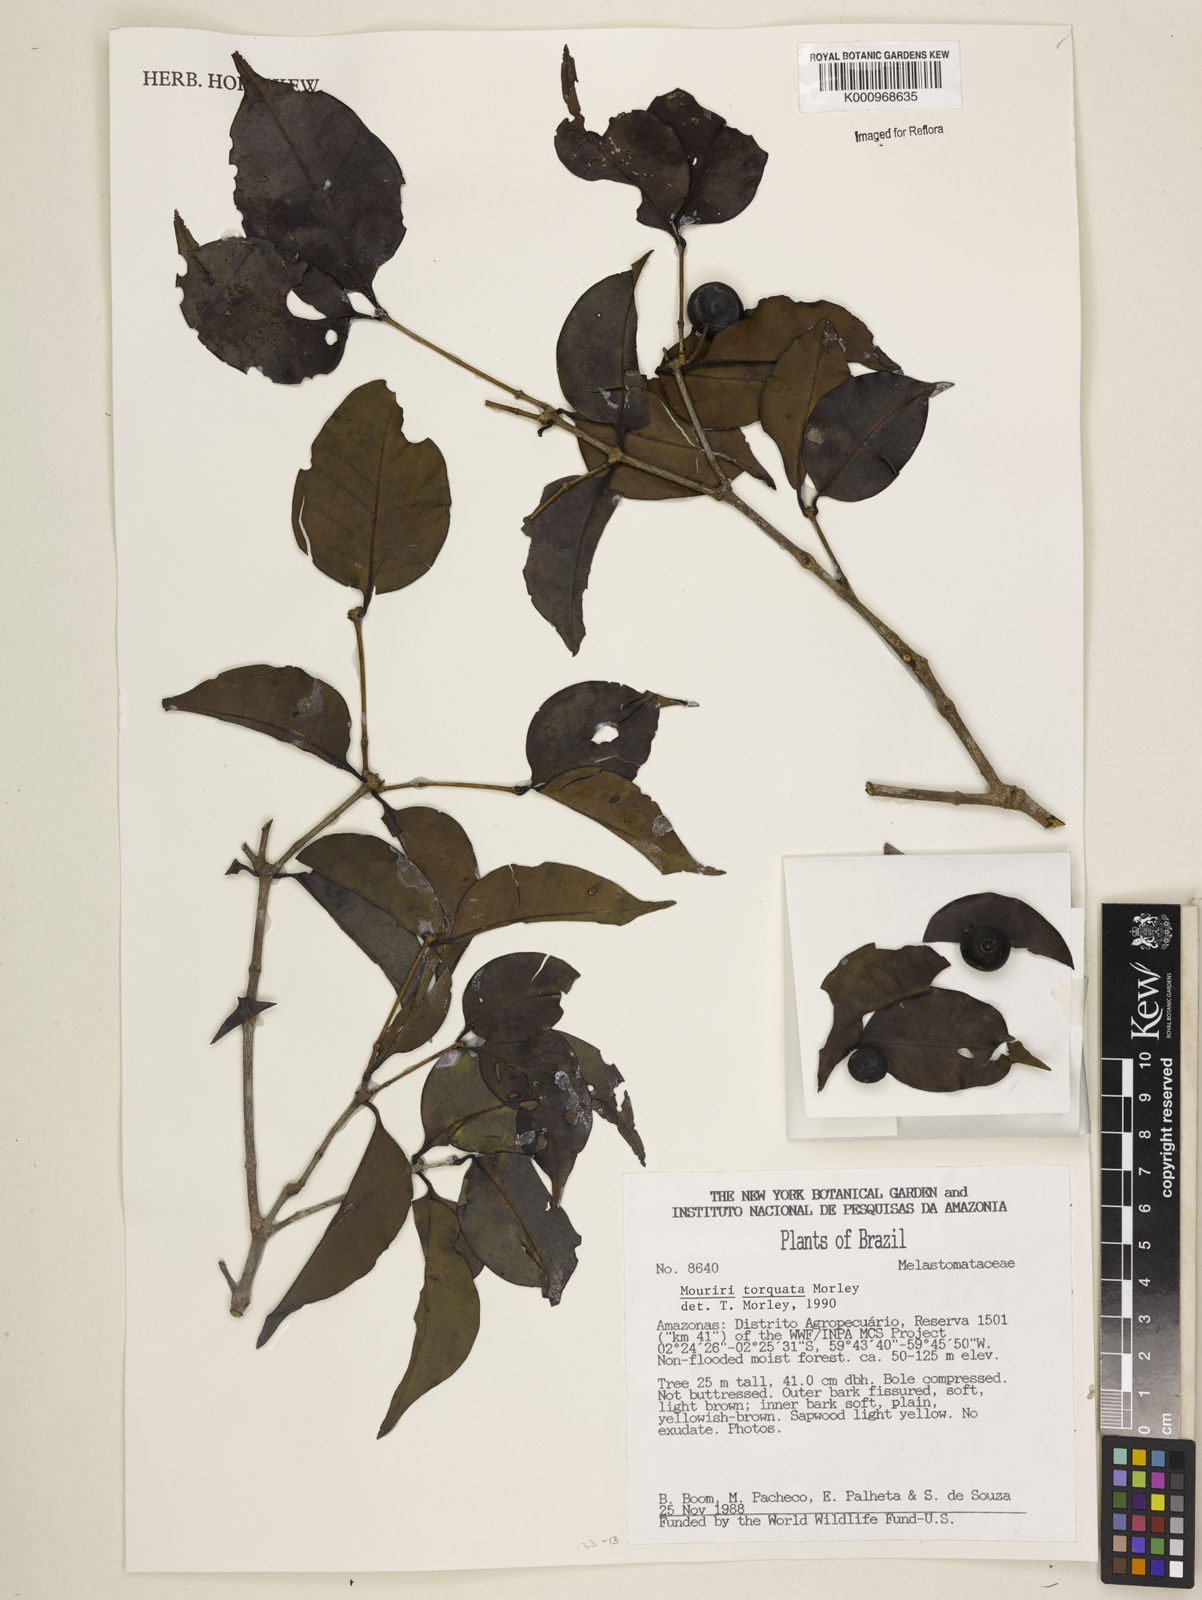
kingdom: Plantae
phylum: Tracheophyta
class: Magnoliopsida
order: Myrtales
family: Melastomataceae
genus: Mouriri
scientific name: Mouriri torquata
